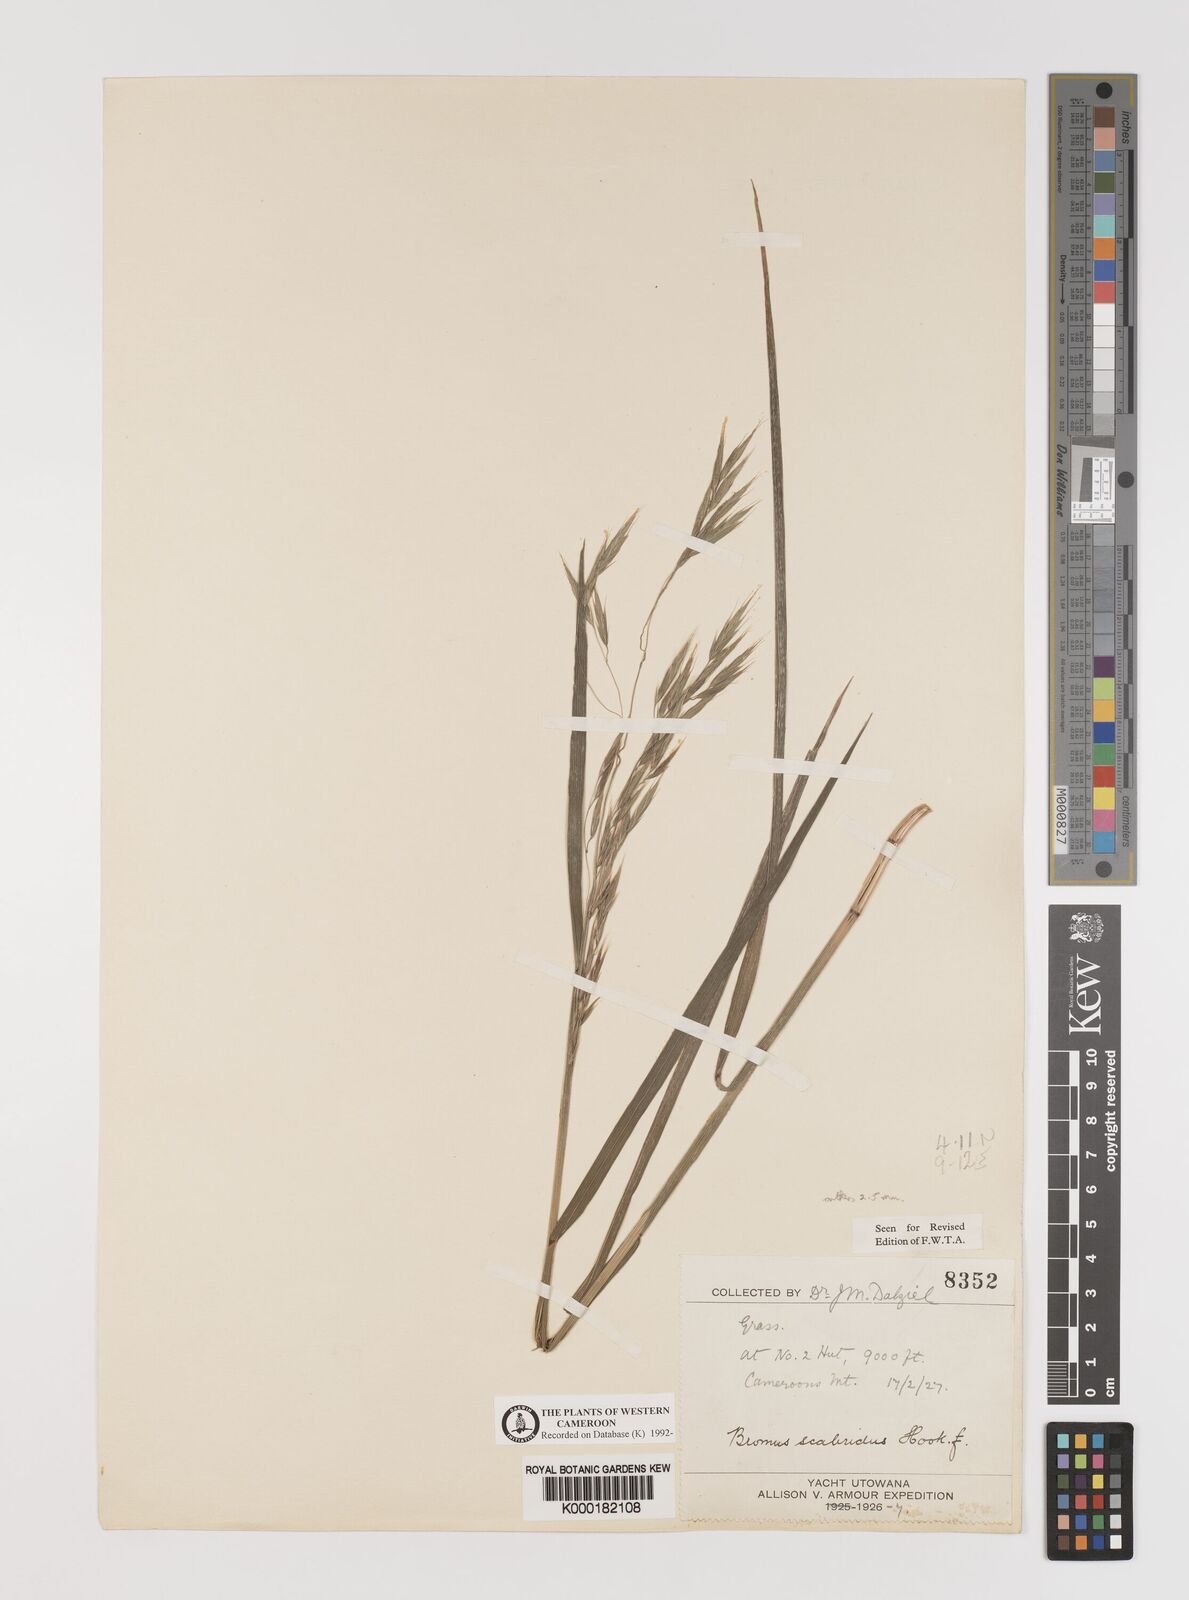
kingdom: Plantae
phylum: Tracheophyta
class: Liliopsida
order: Poales
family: Poaceae
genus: Bromus
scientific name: Bromus leptoclados
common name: Mountain bromegrass
